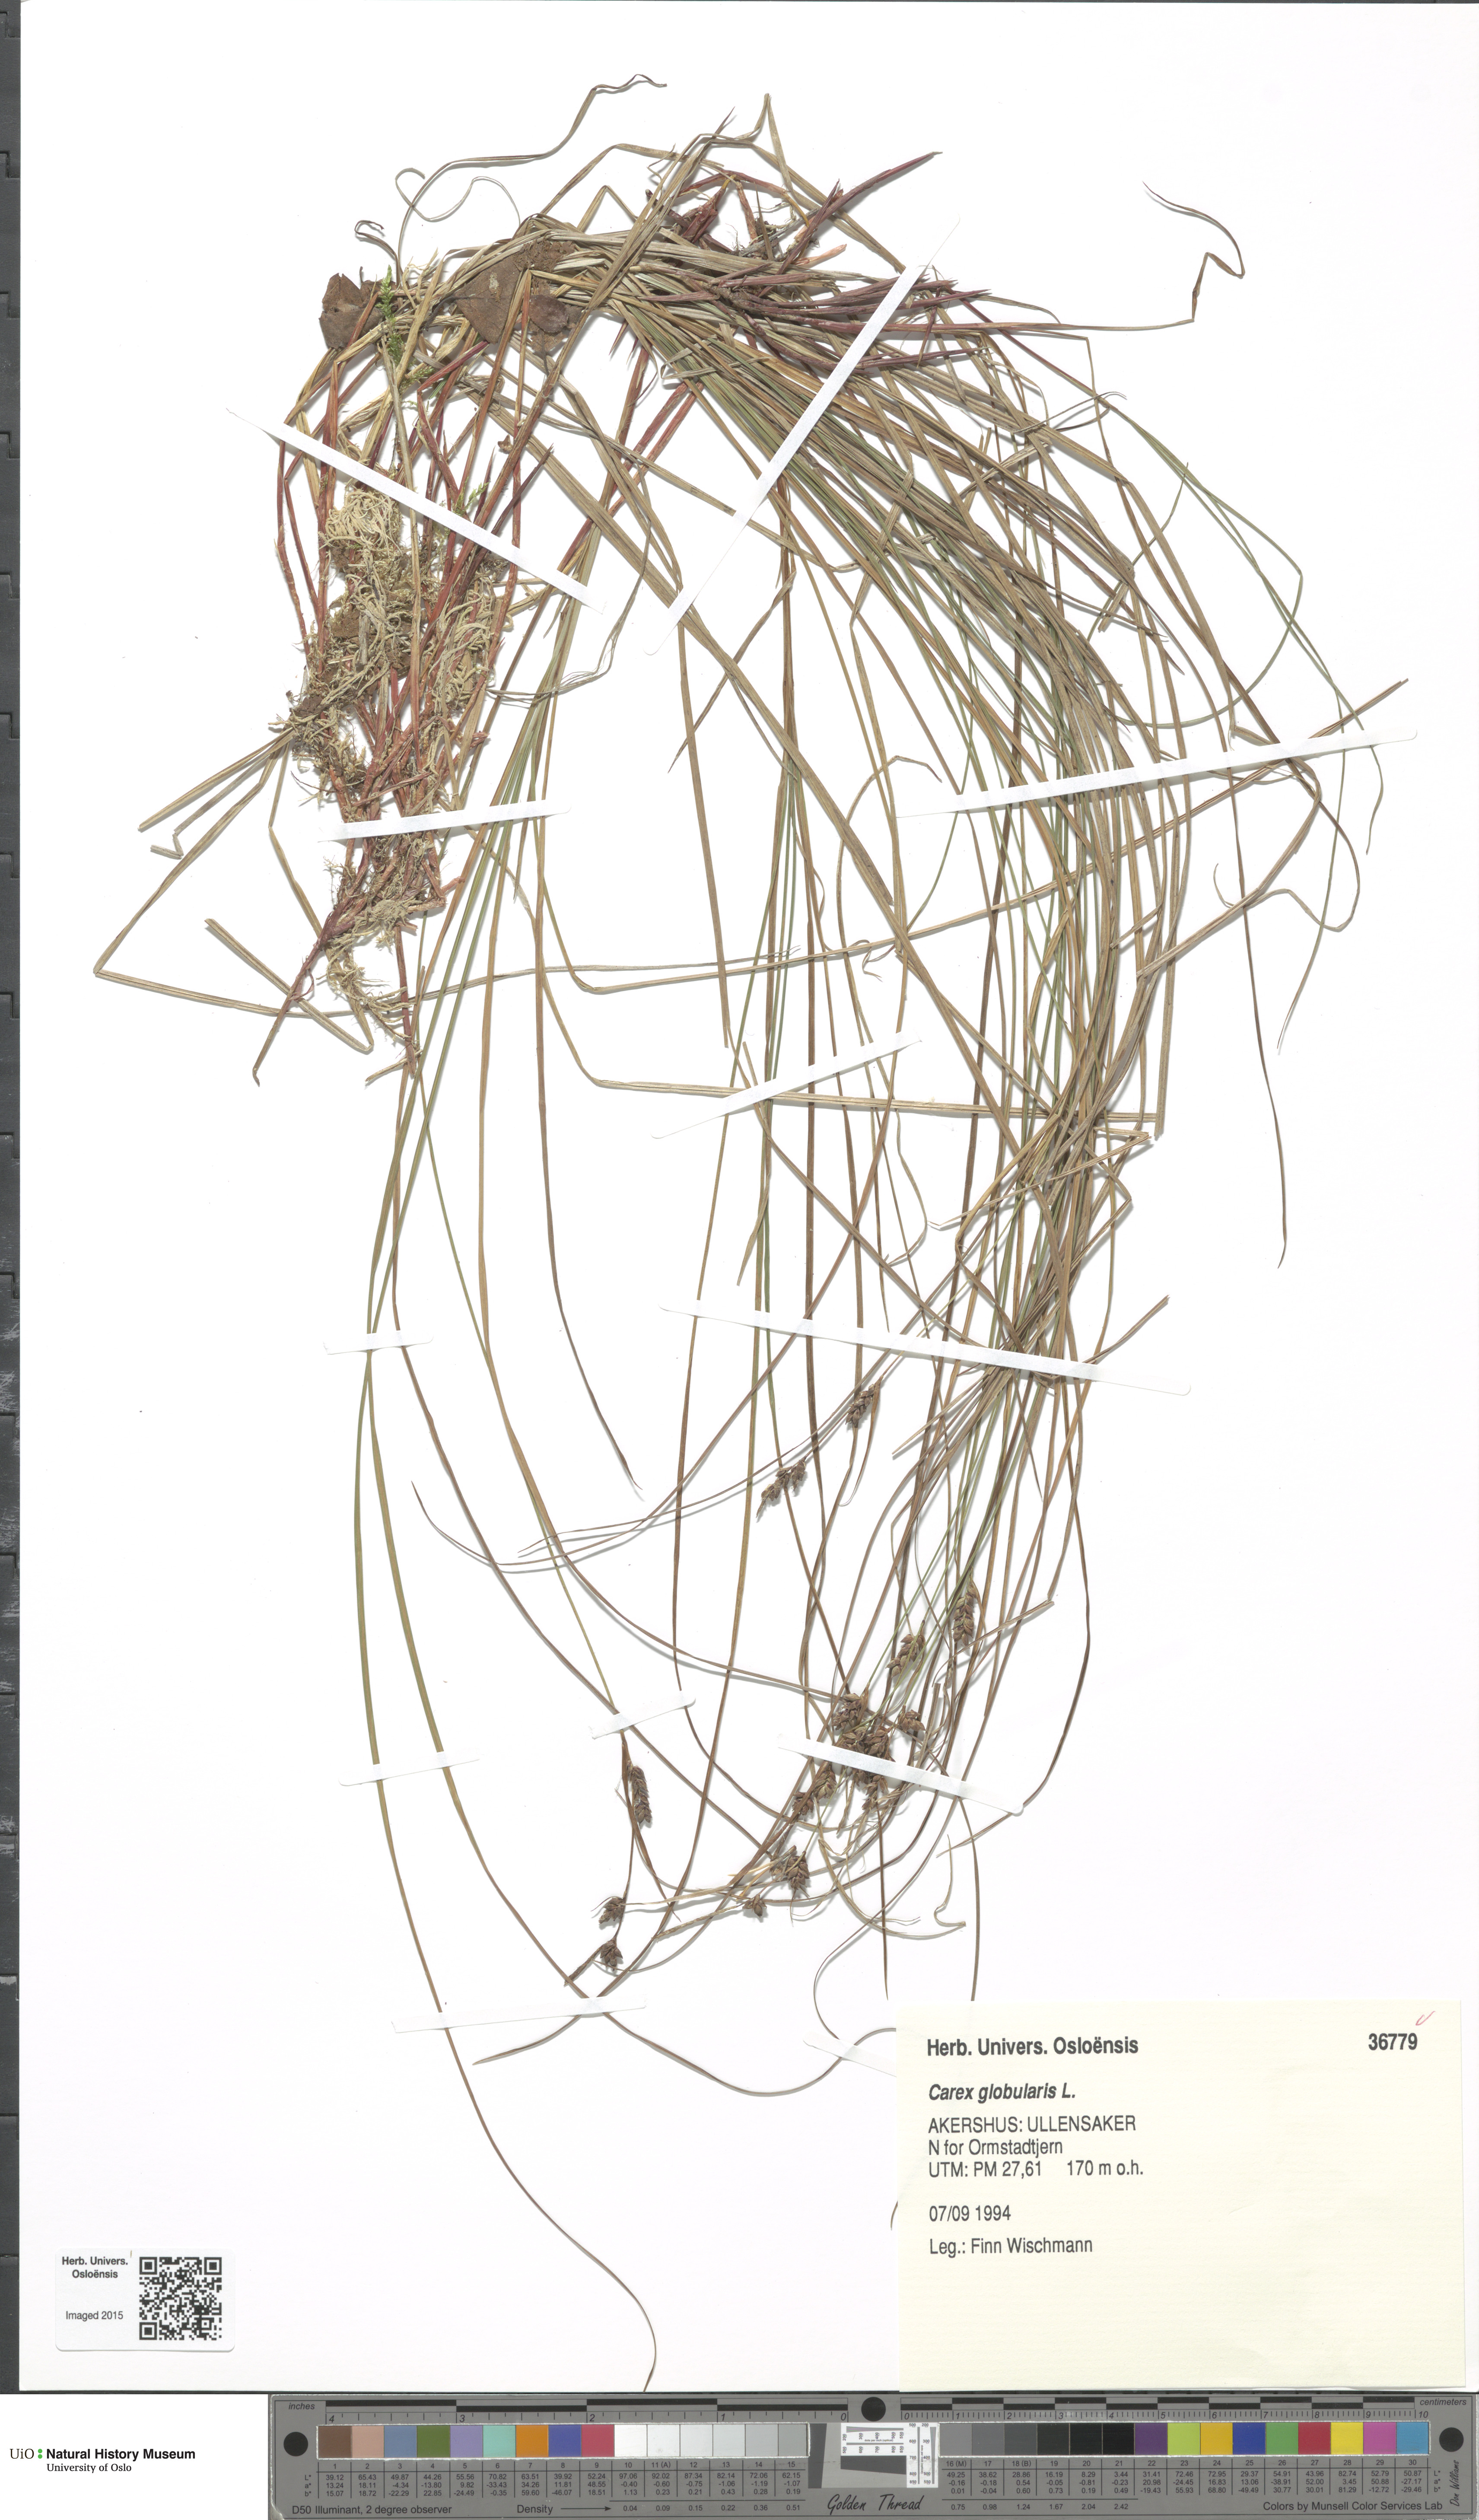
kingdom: Plantae
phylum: Tracheophyta
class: Liliopsida
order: Poales
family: Cyperaceae
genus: Carex
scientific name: Carex globularis
